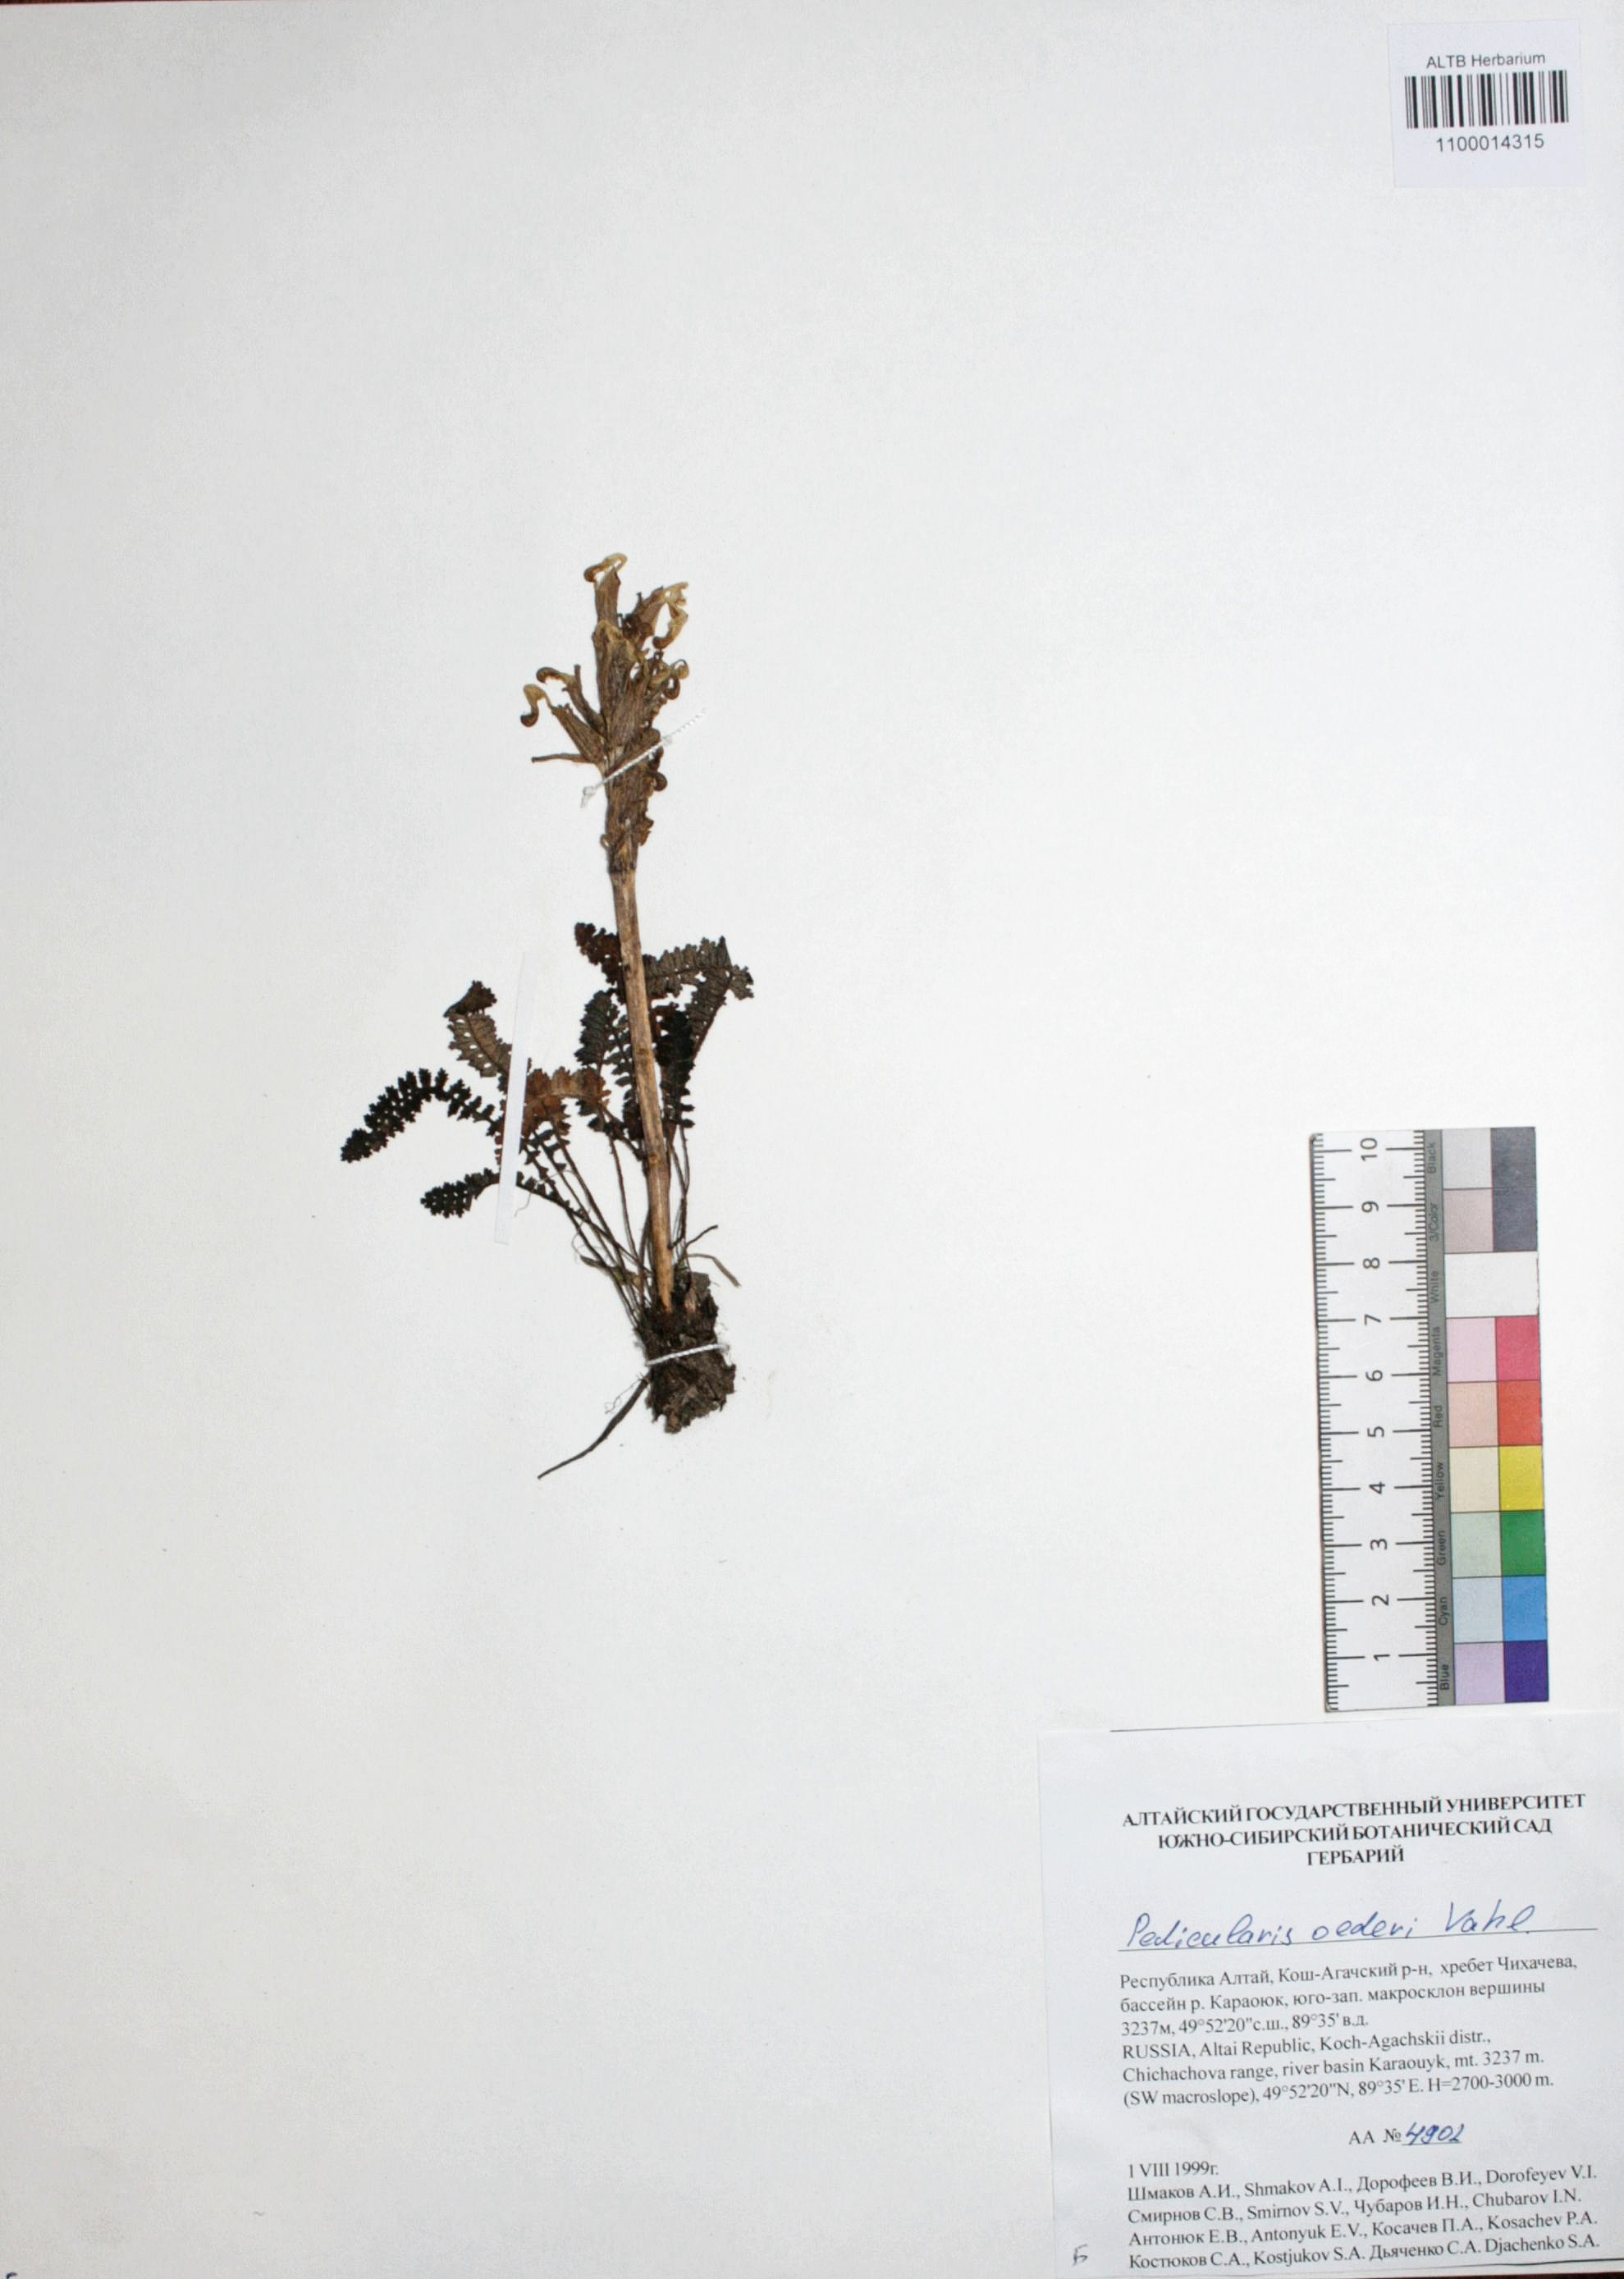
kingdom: Plantae
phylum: Tracheophyta
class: Magnoliopsida
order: Caryophyllales
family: Caryophyllaceae
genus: Silene
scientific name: Silene graminifolia
